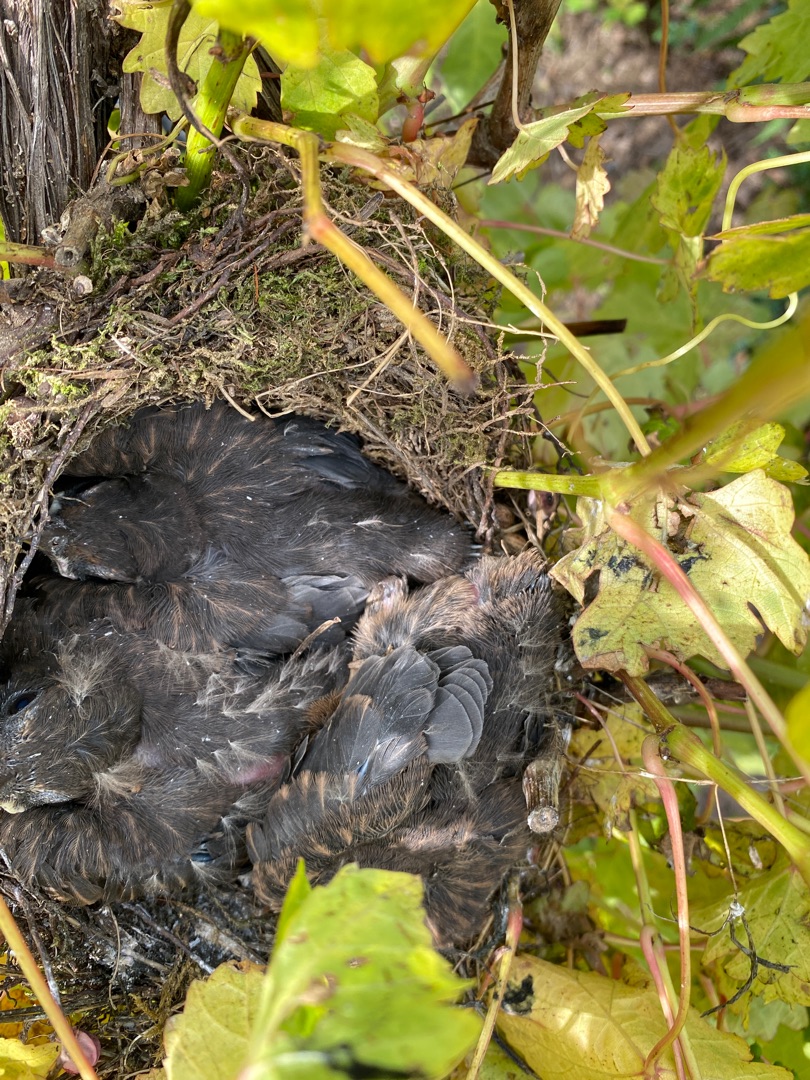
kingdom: Animalia
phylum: Chordata
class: Aves
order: Passeriformes
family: Turdidae
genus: Turdus
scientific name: Turdus merula
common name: Solsort
